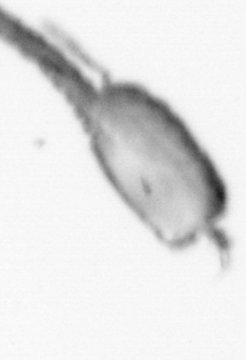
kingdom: Animalia
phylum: Arthropoda
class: Copepoda
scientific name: Copepoda
